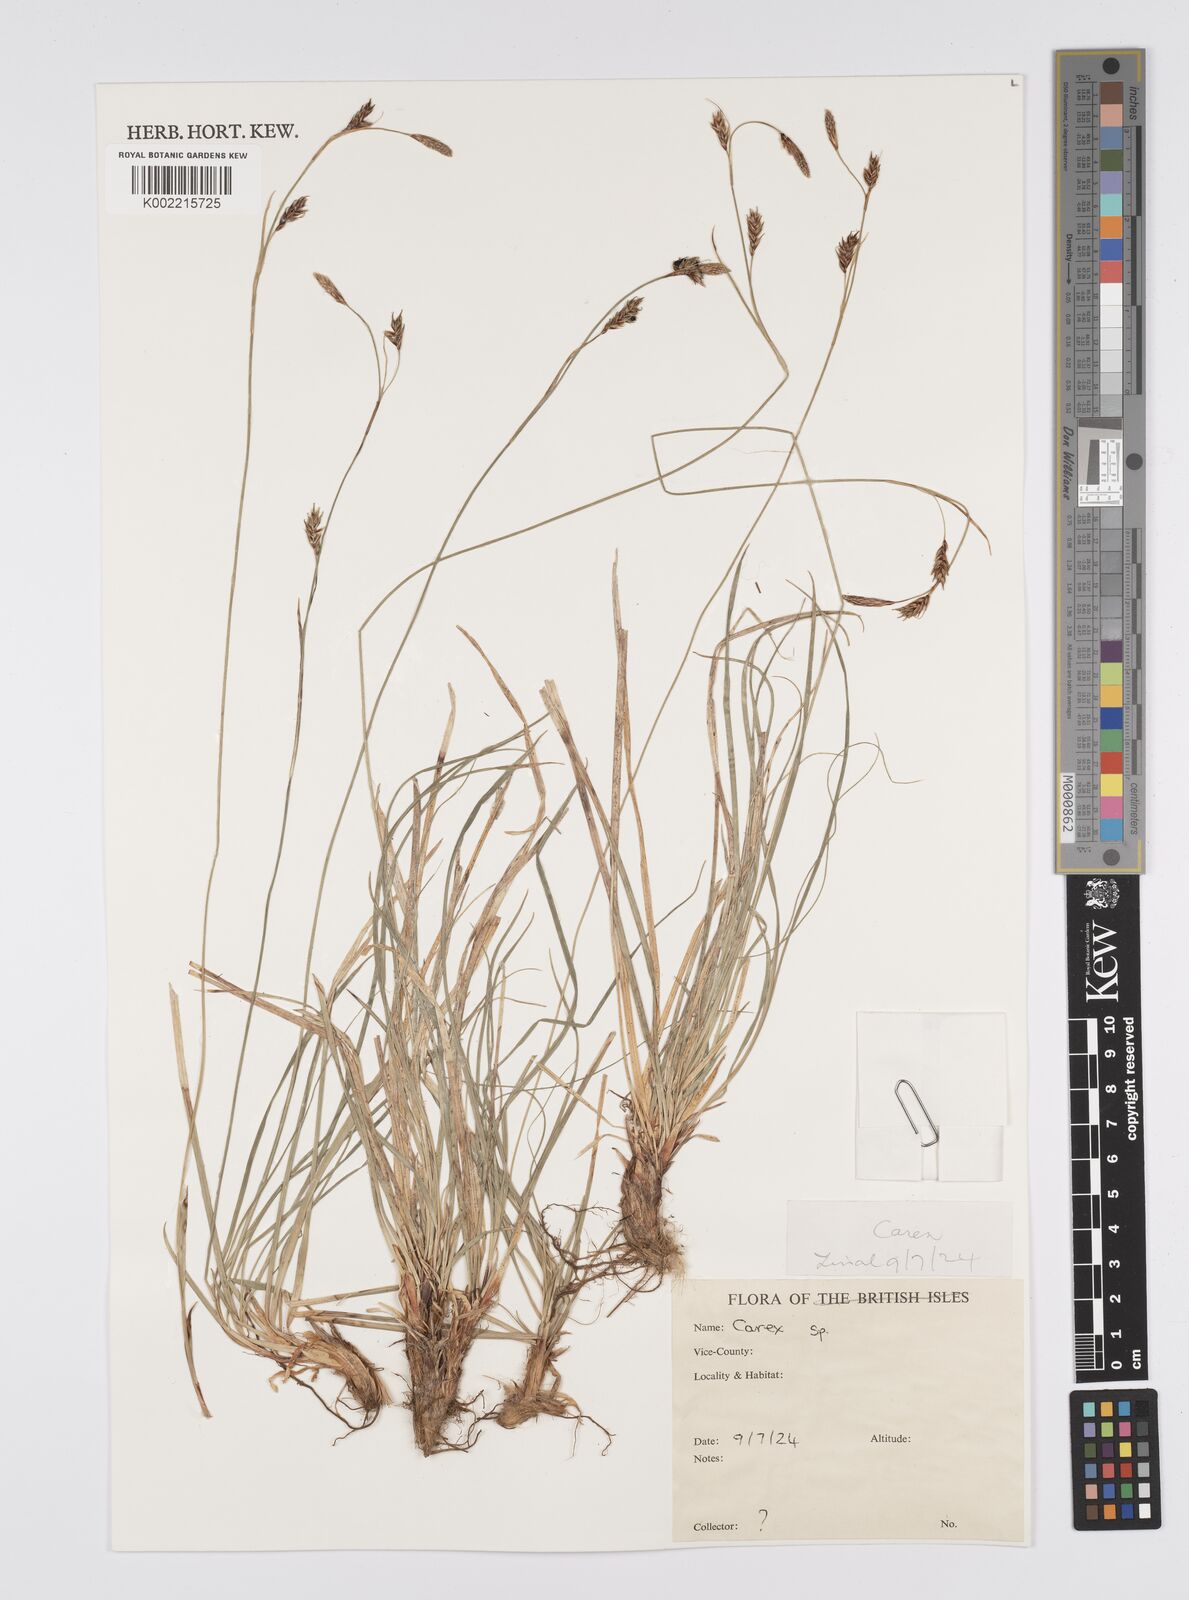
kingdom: Plantae
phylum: Tracheophyta
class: Liliopsida
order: Poales
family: Cyperaceae
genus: Carex
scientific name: Carex
